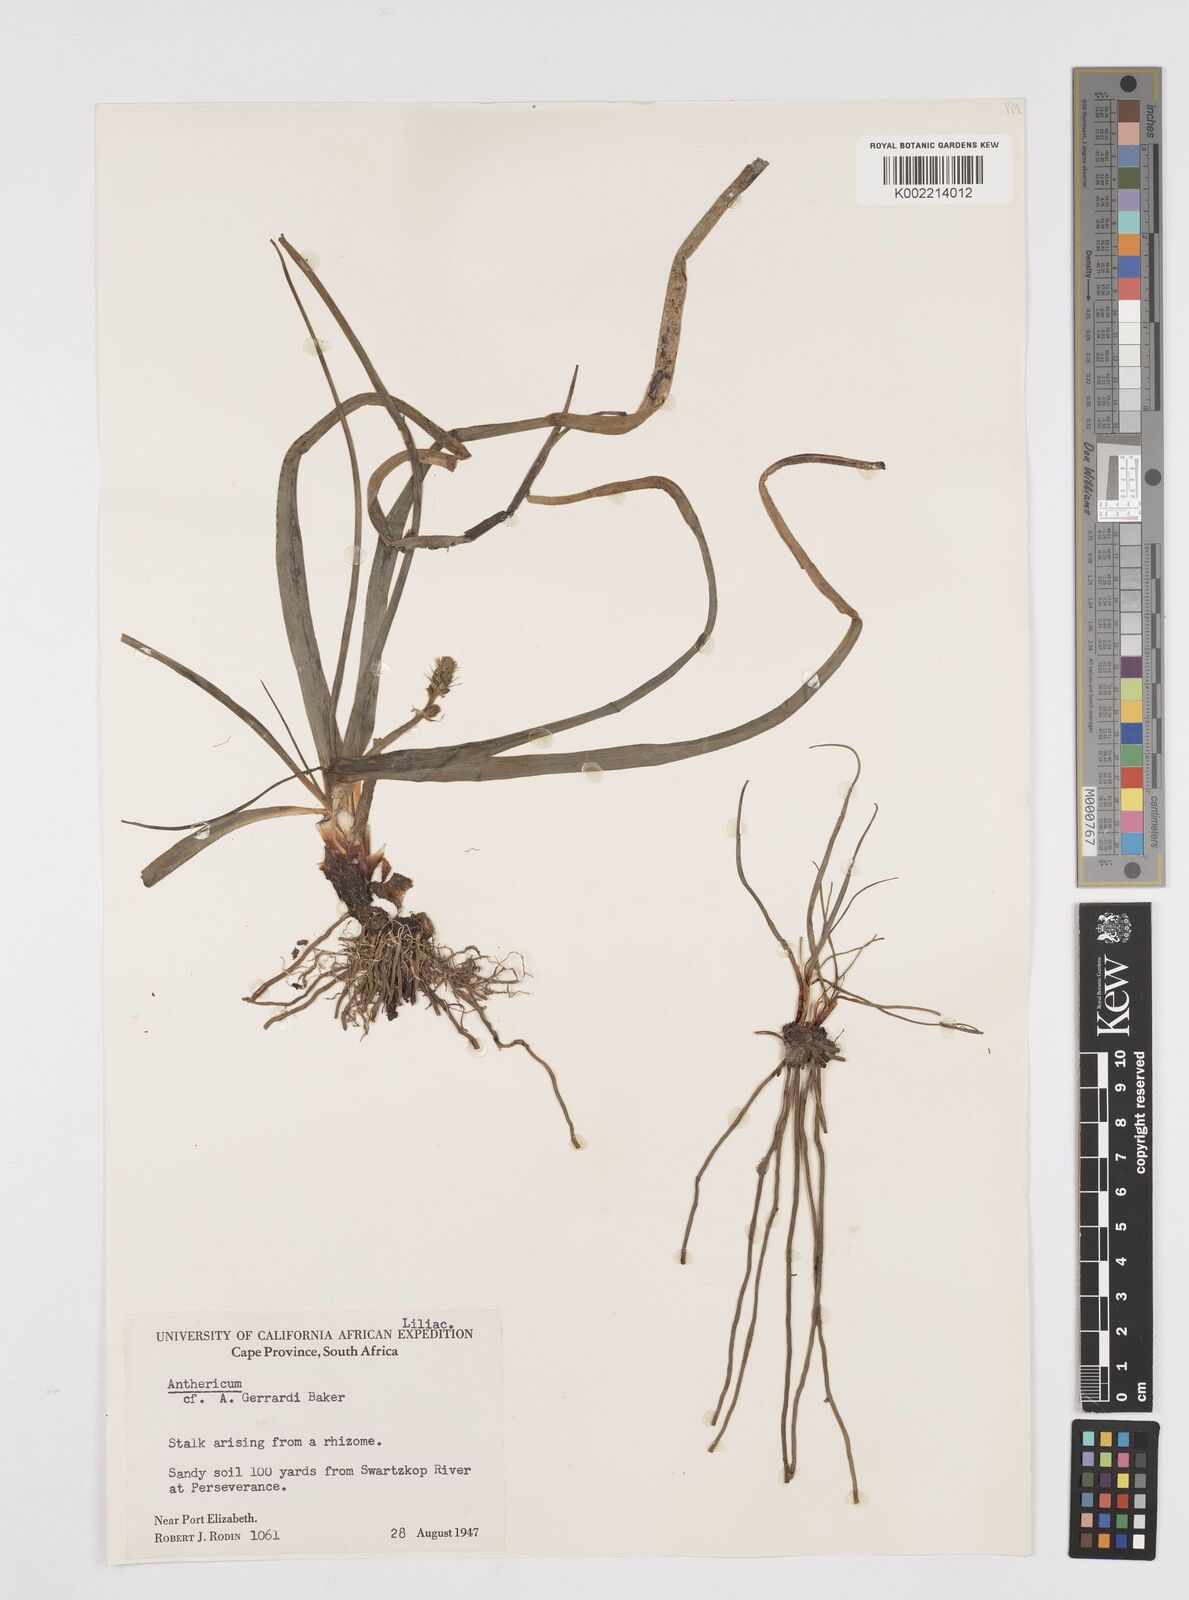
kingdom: Plantae
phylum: Tracheophyta
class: Liliopsida
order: Asparagales
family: Asphodelaceae
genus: Trachyandra
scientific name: Trachyandra gerrardii
